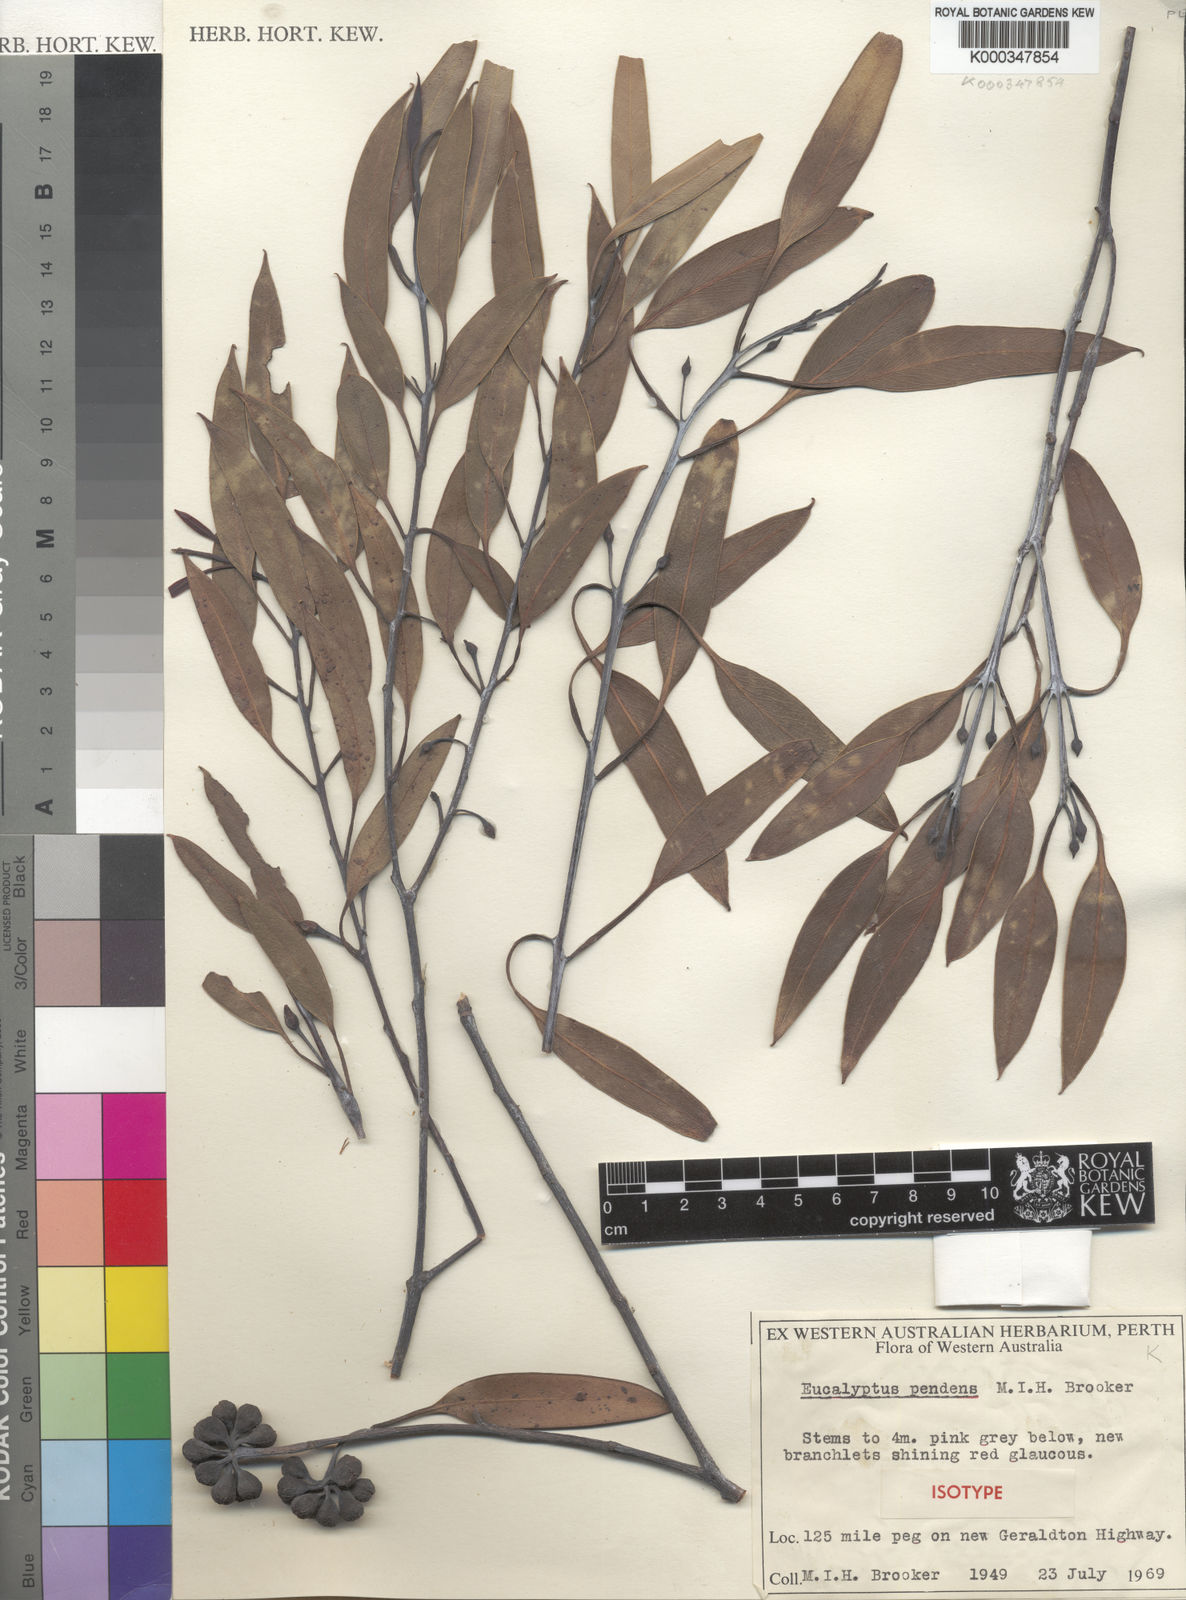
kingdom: Plantae
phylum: Tracheophyta
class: Magnoliopsida
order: Myrtales
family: Myrtaceae
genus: Eucalyptus
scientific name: Eucalyptus pendens
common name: Badgingarra mallee
